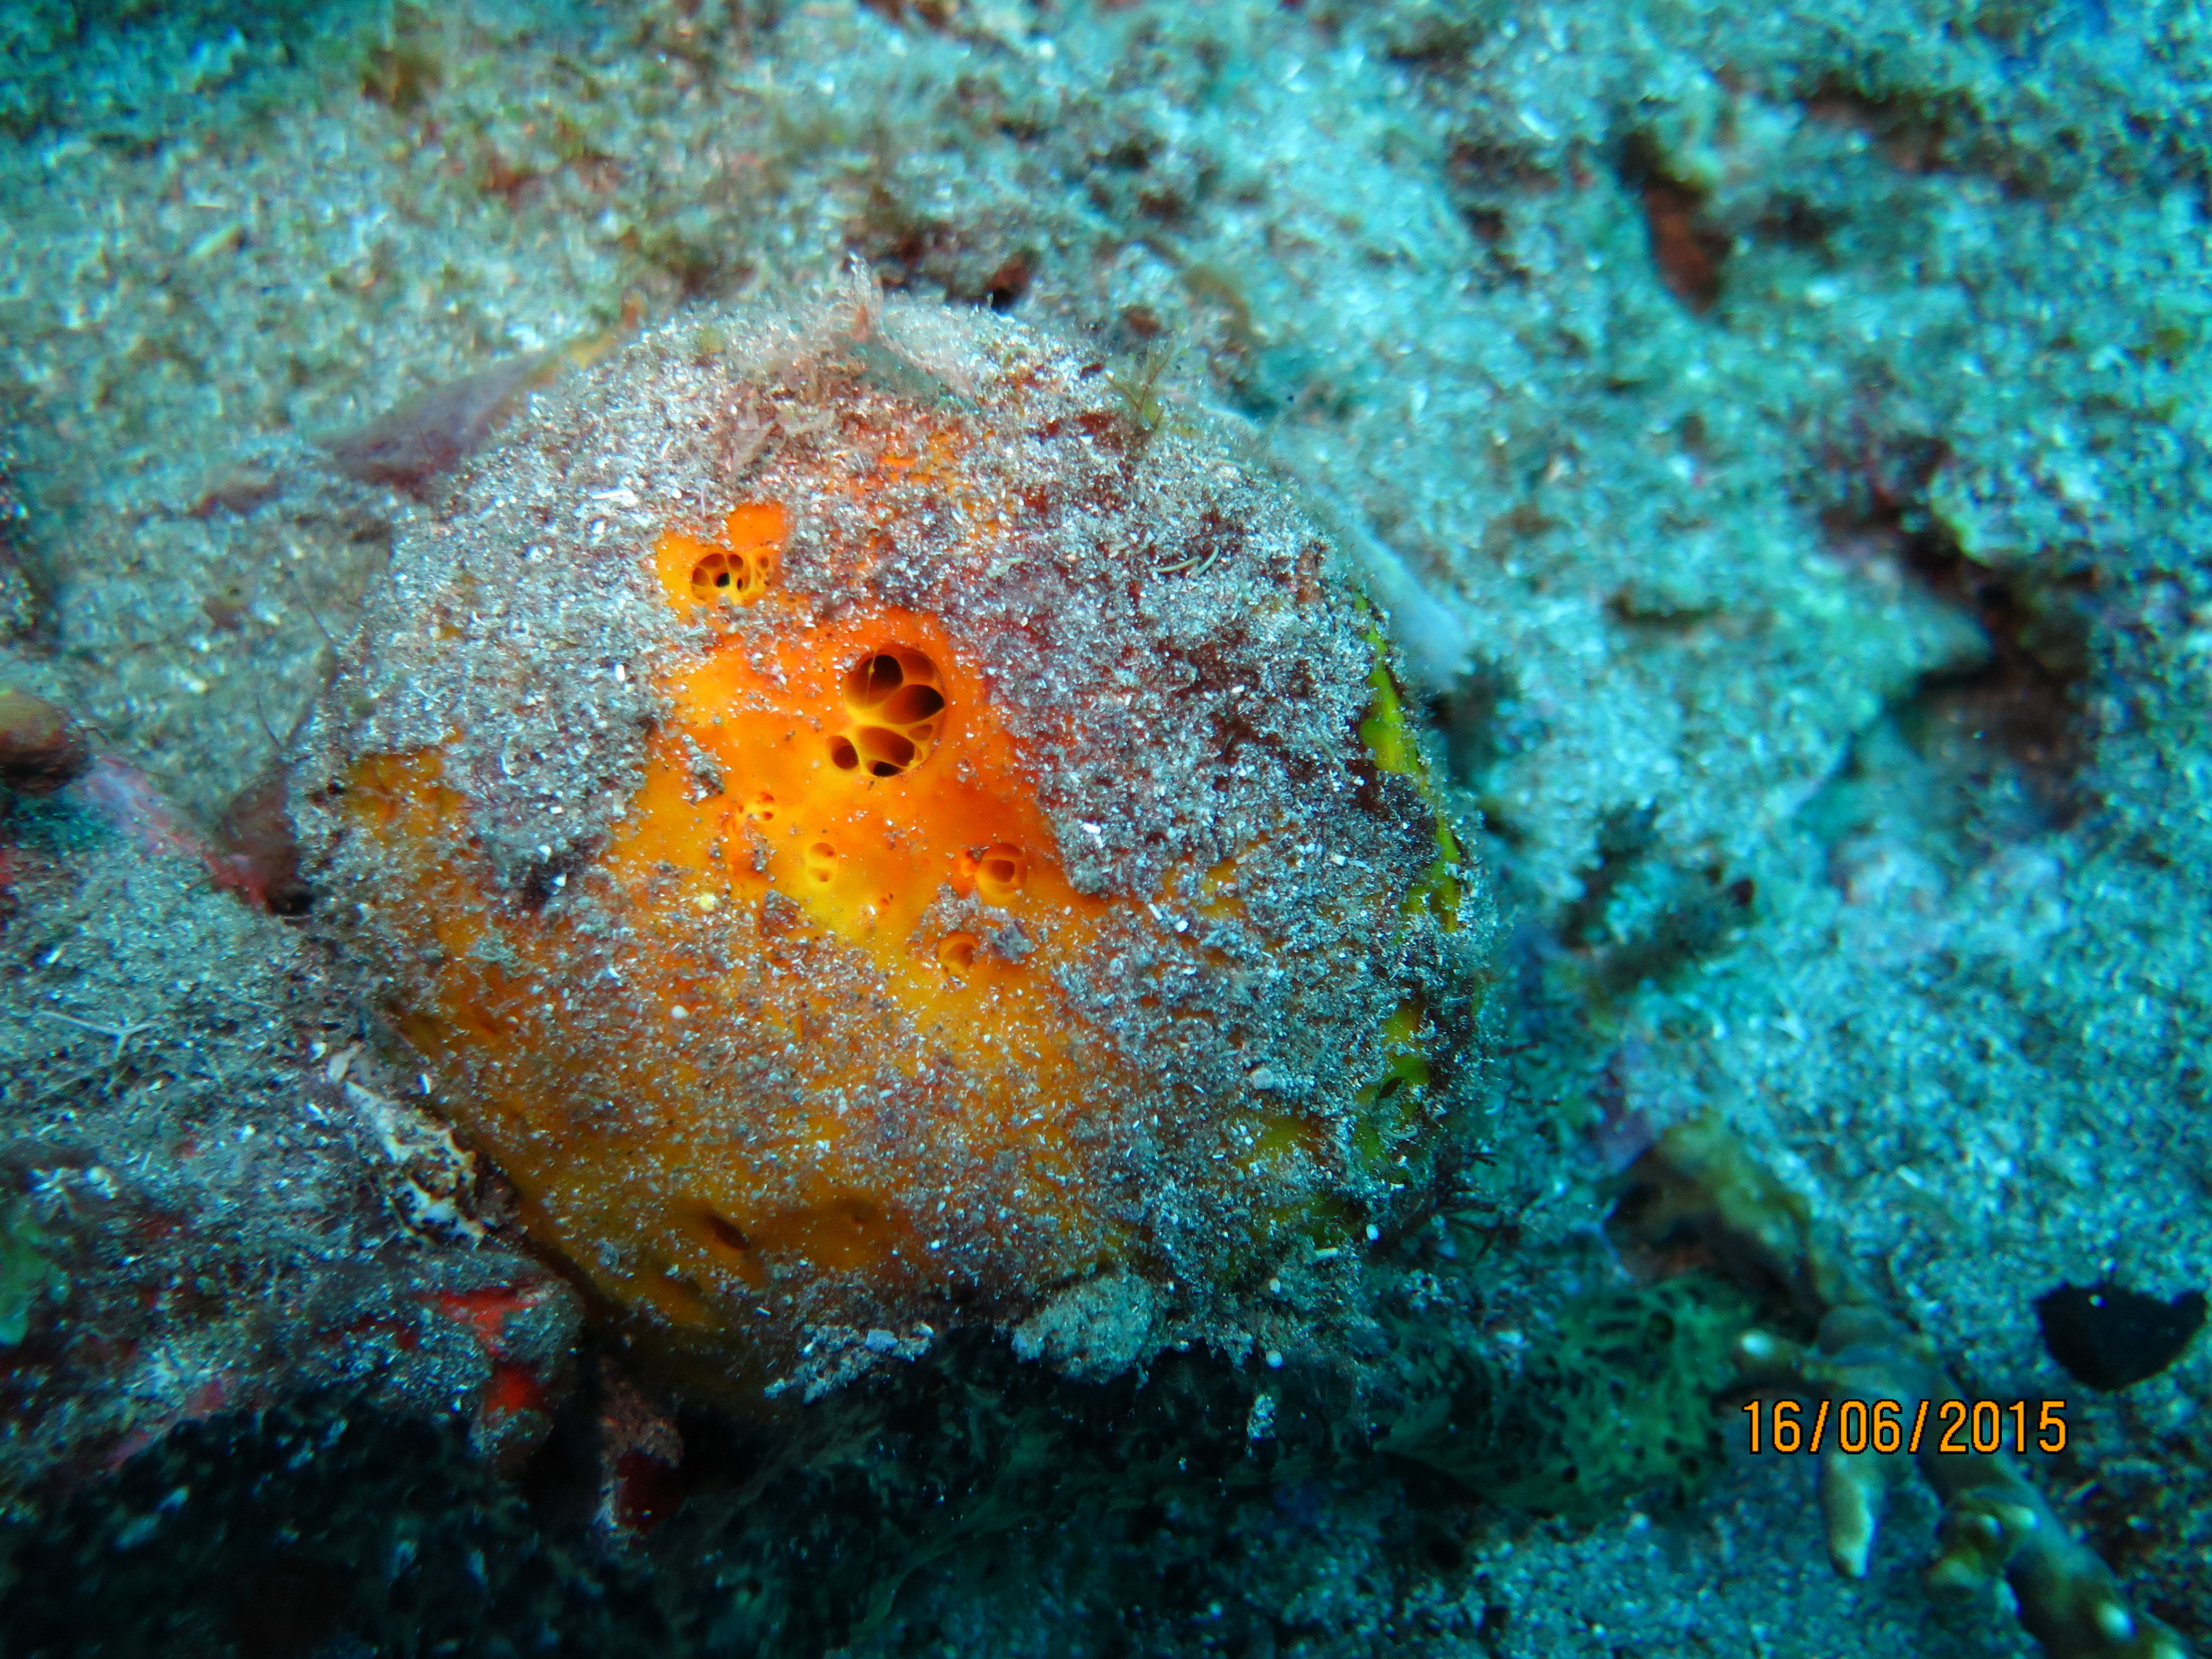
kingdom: Animalia
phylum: Porifera
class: Demospongiae
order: Tetractinellida
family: Tetillidae
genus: Cinachyrella
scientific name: Cinachyrella
